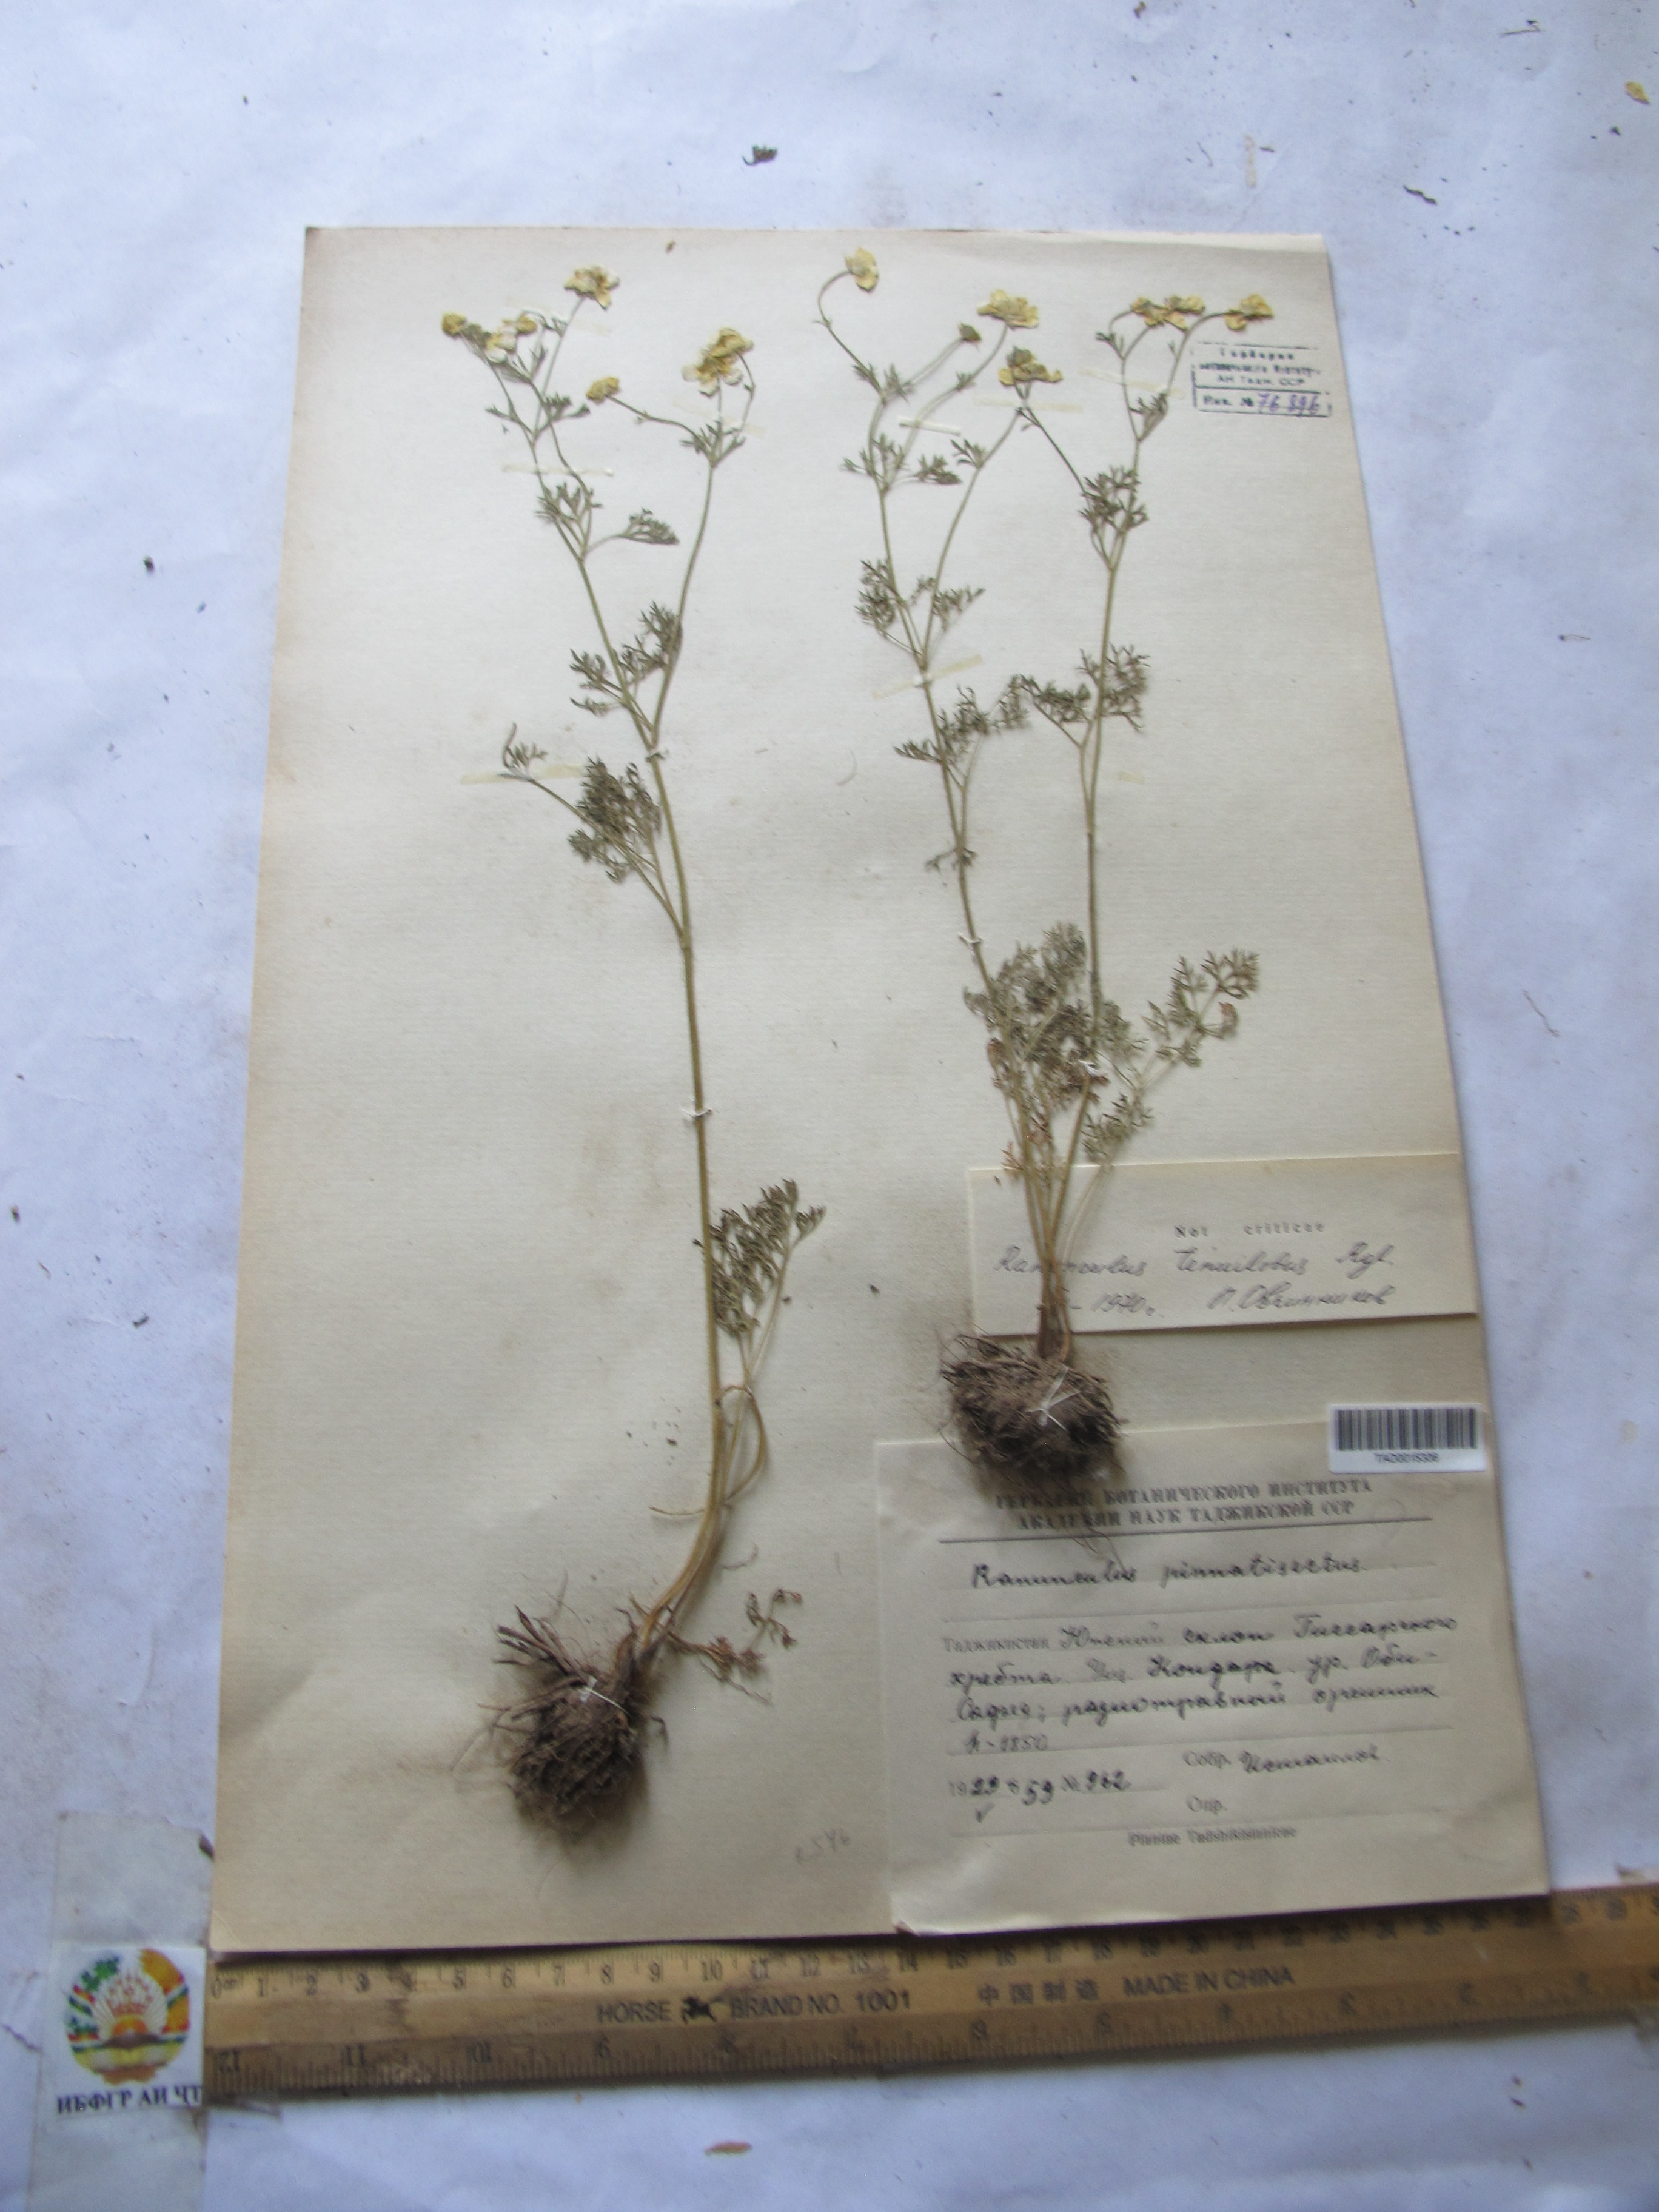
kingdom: Plantae
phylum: Tracheophyta
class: Magnoliopsida
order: Ranunculales
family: Ranunculaceae
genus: Ranunculus
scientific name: Ranunculus tenuilobus
